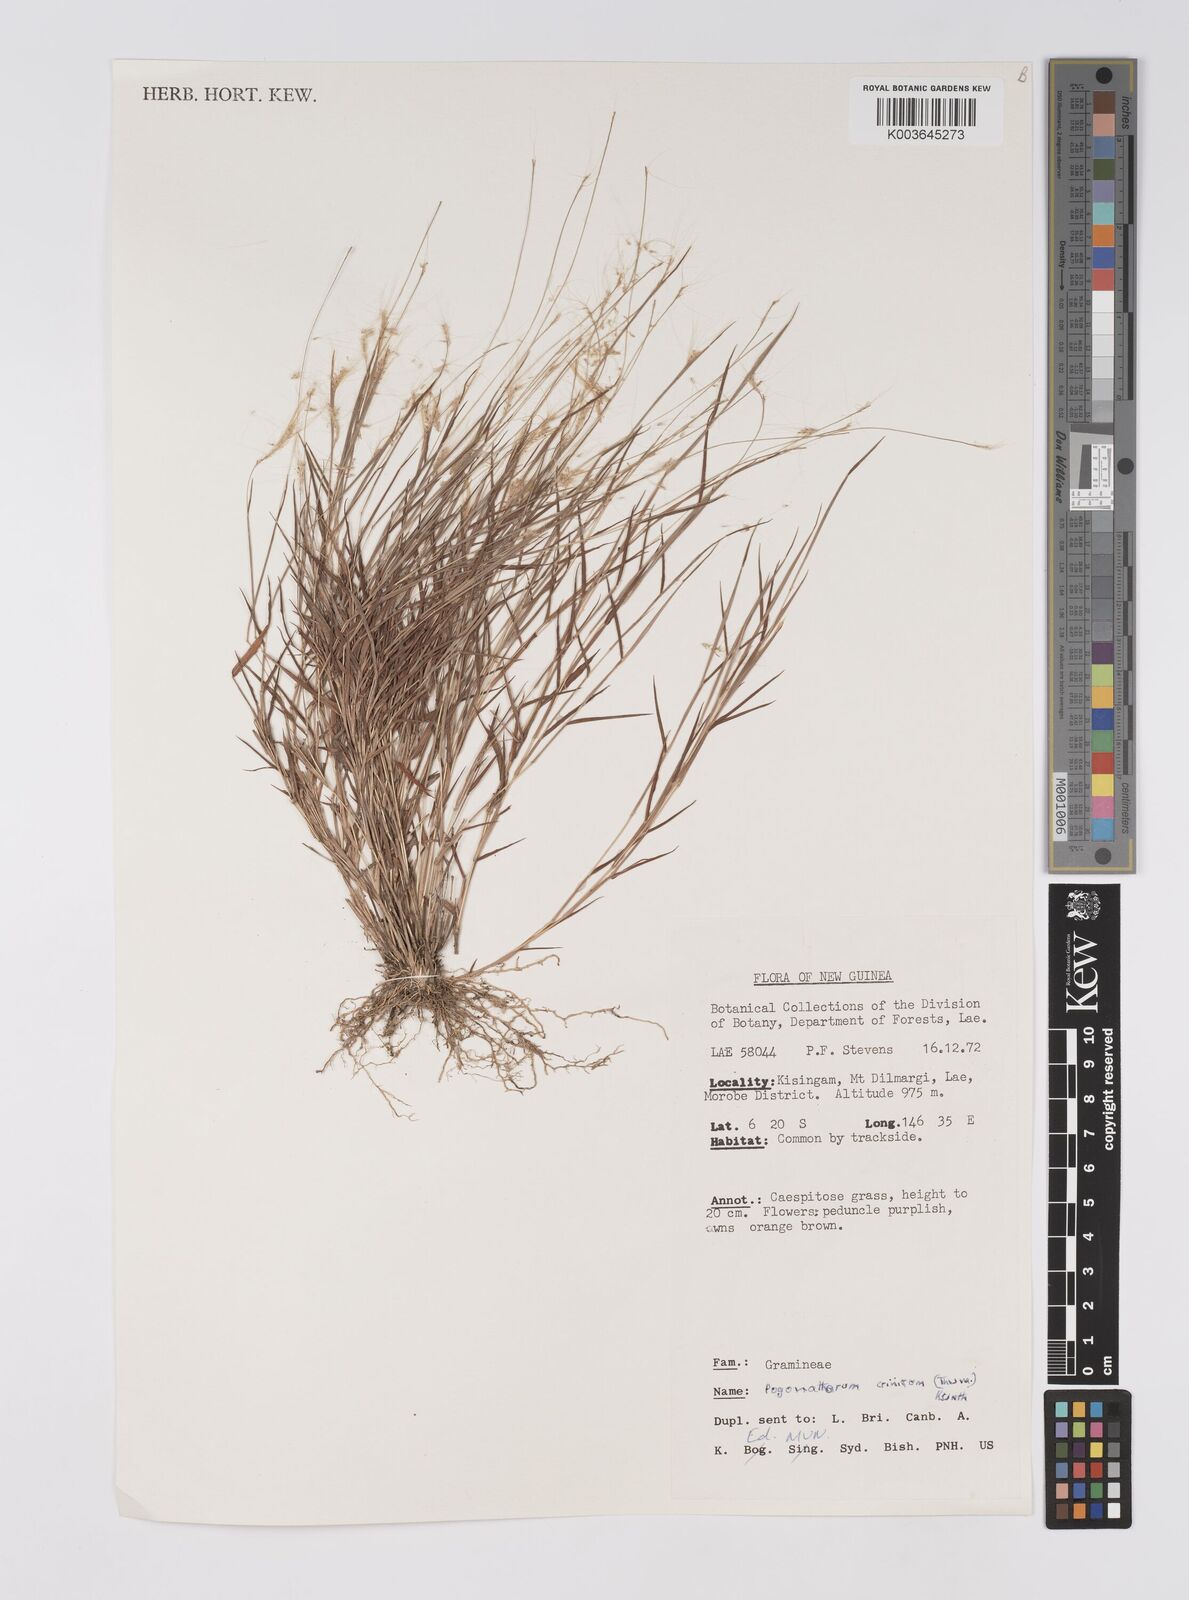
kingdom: Plantae
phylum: Tracheophyta
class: Liliopsida
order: Poales
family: Poaceae
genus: Pogonatherum
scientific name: Pogonatherum crinitum
